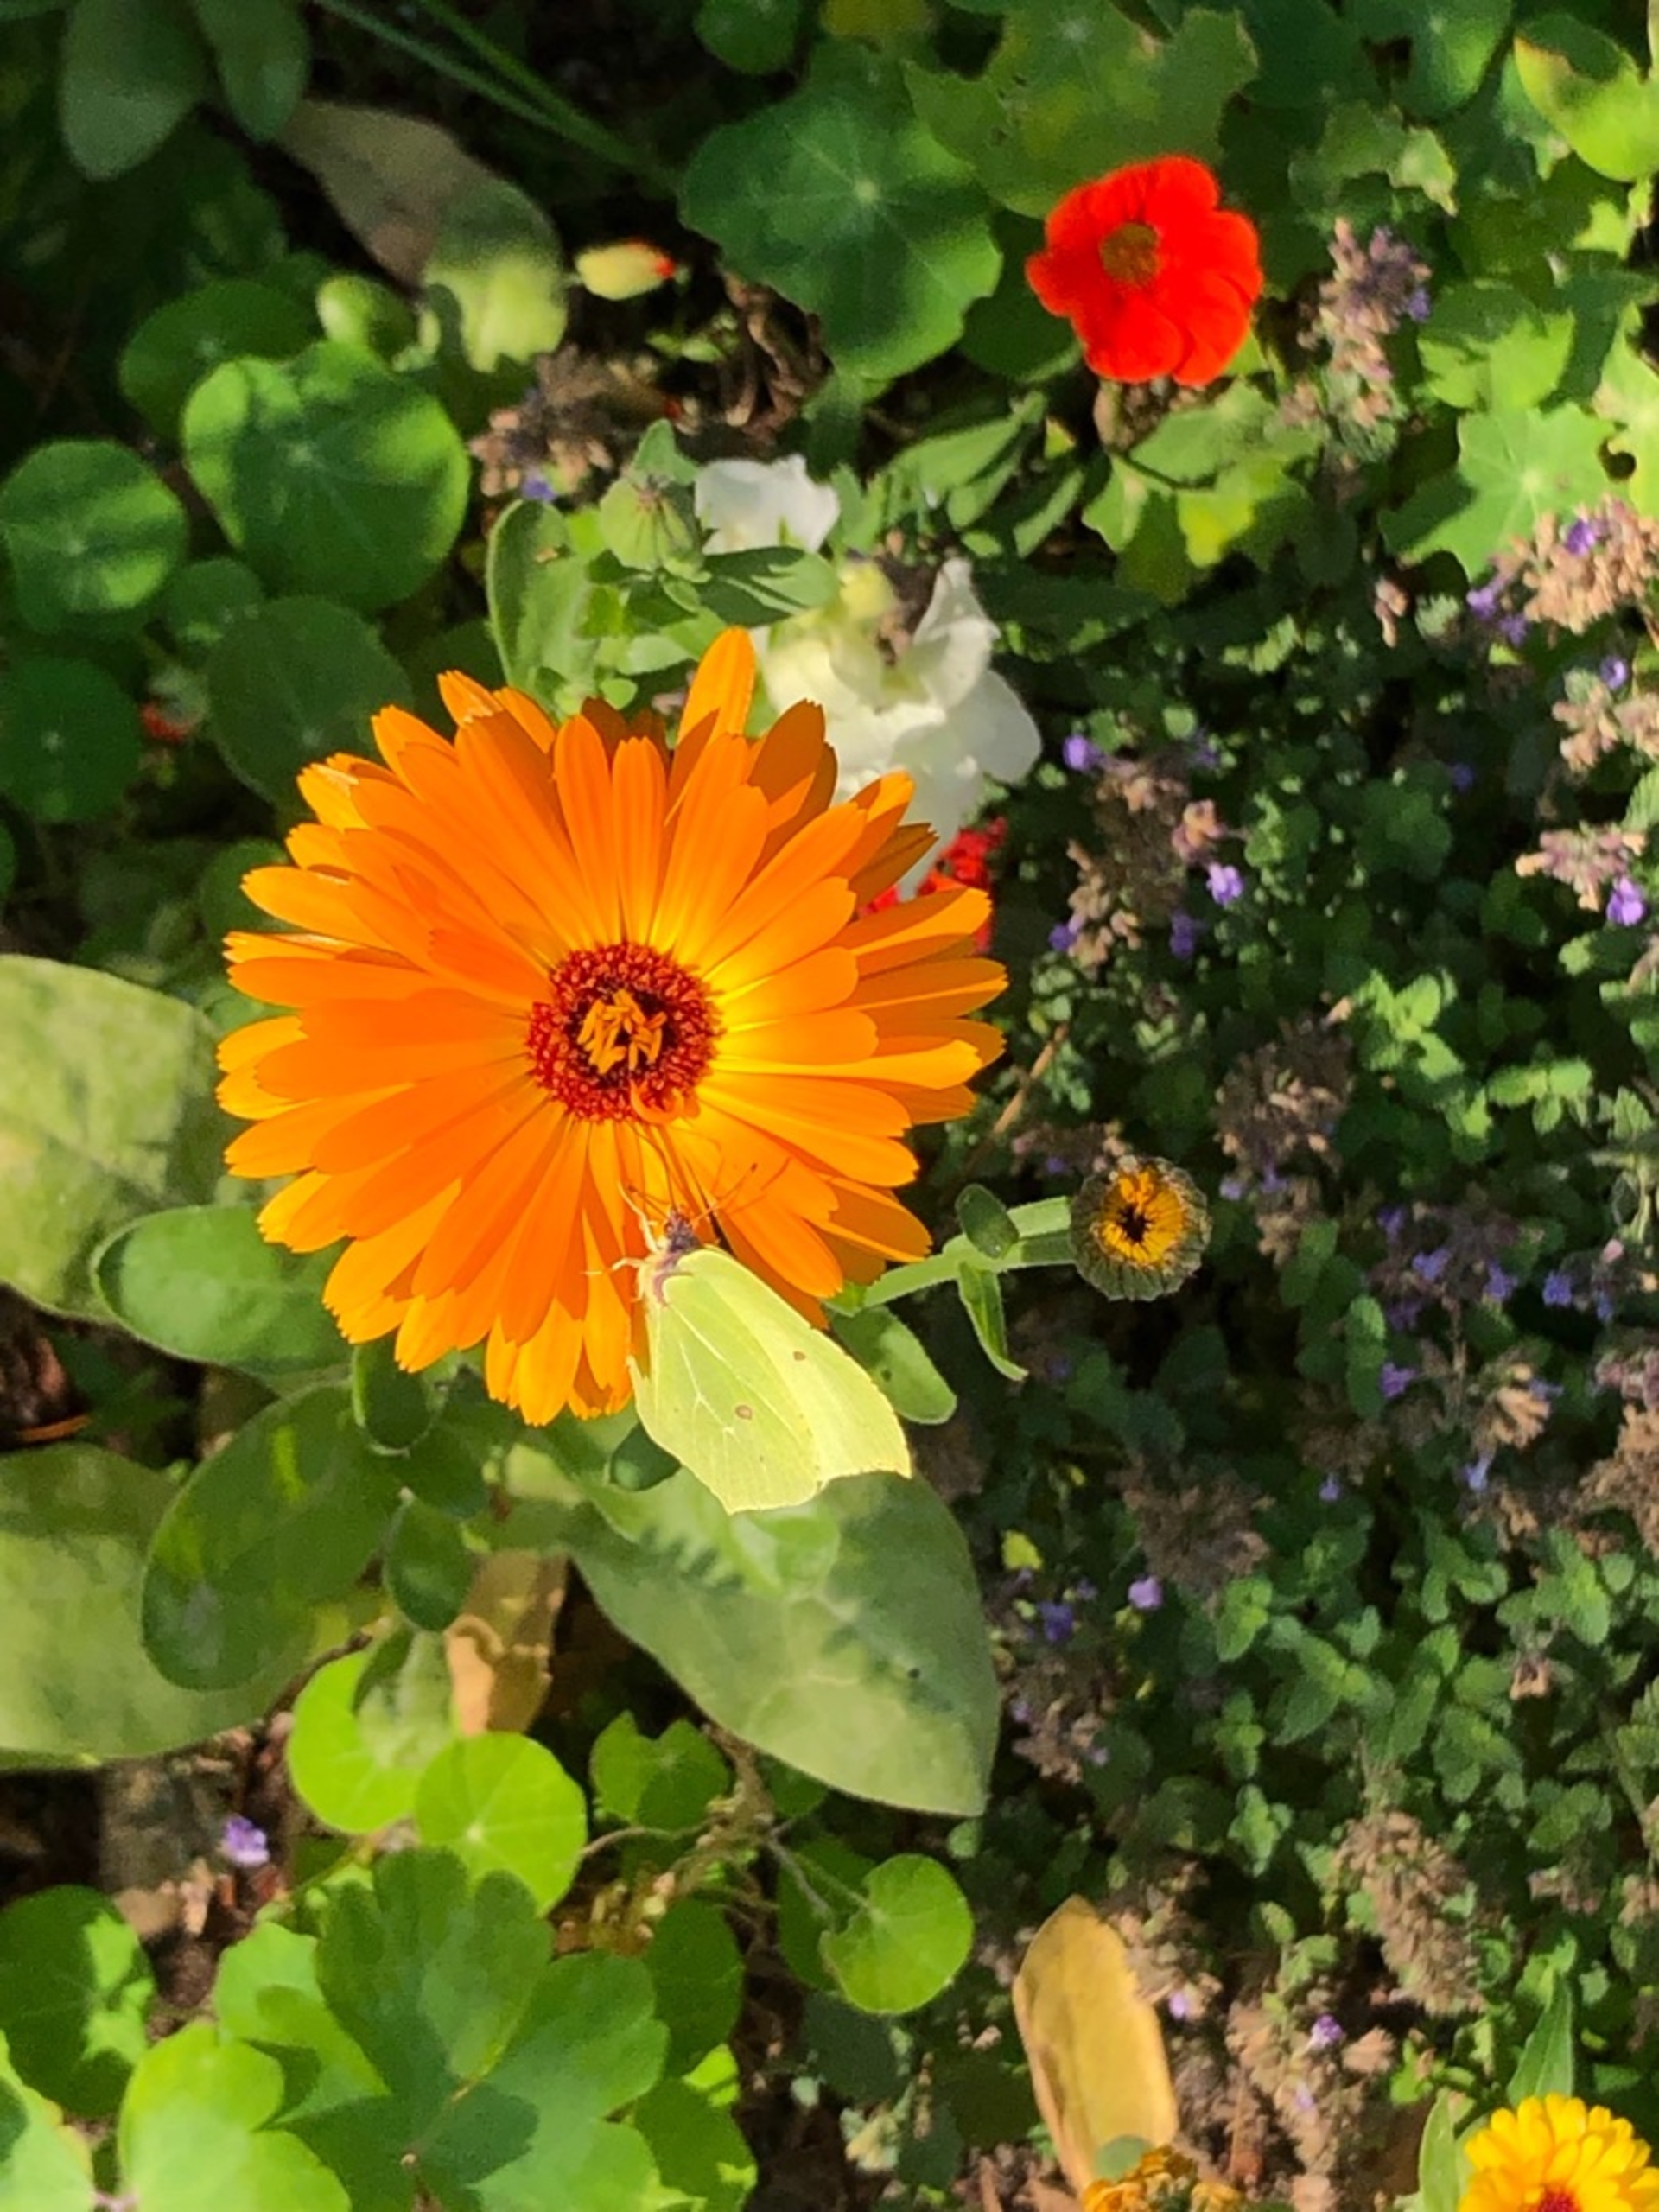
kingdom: Animalia
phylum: Arthropoda
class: Insecta
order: Lepidoptera
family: Pieridae
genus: Gonepteryx
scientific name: Gonepteryx rhamni
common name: Citronsommerfugl
